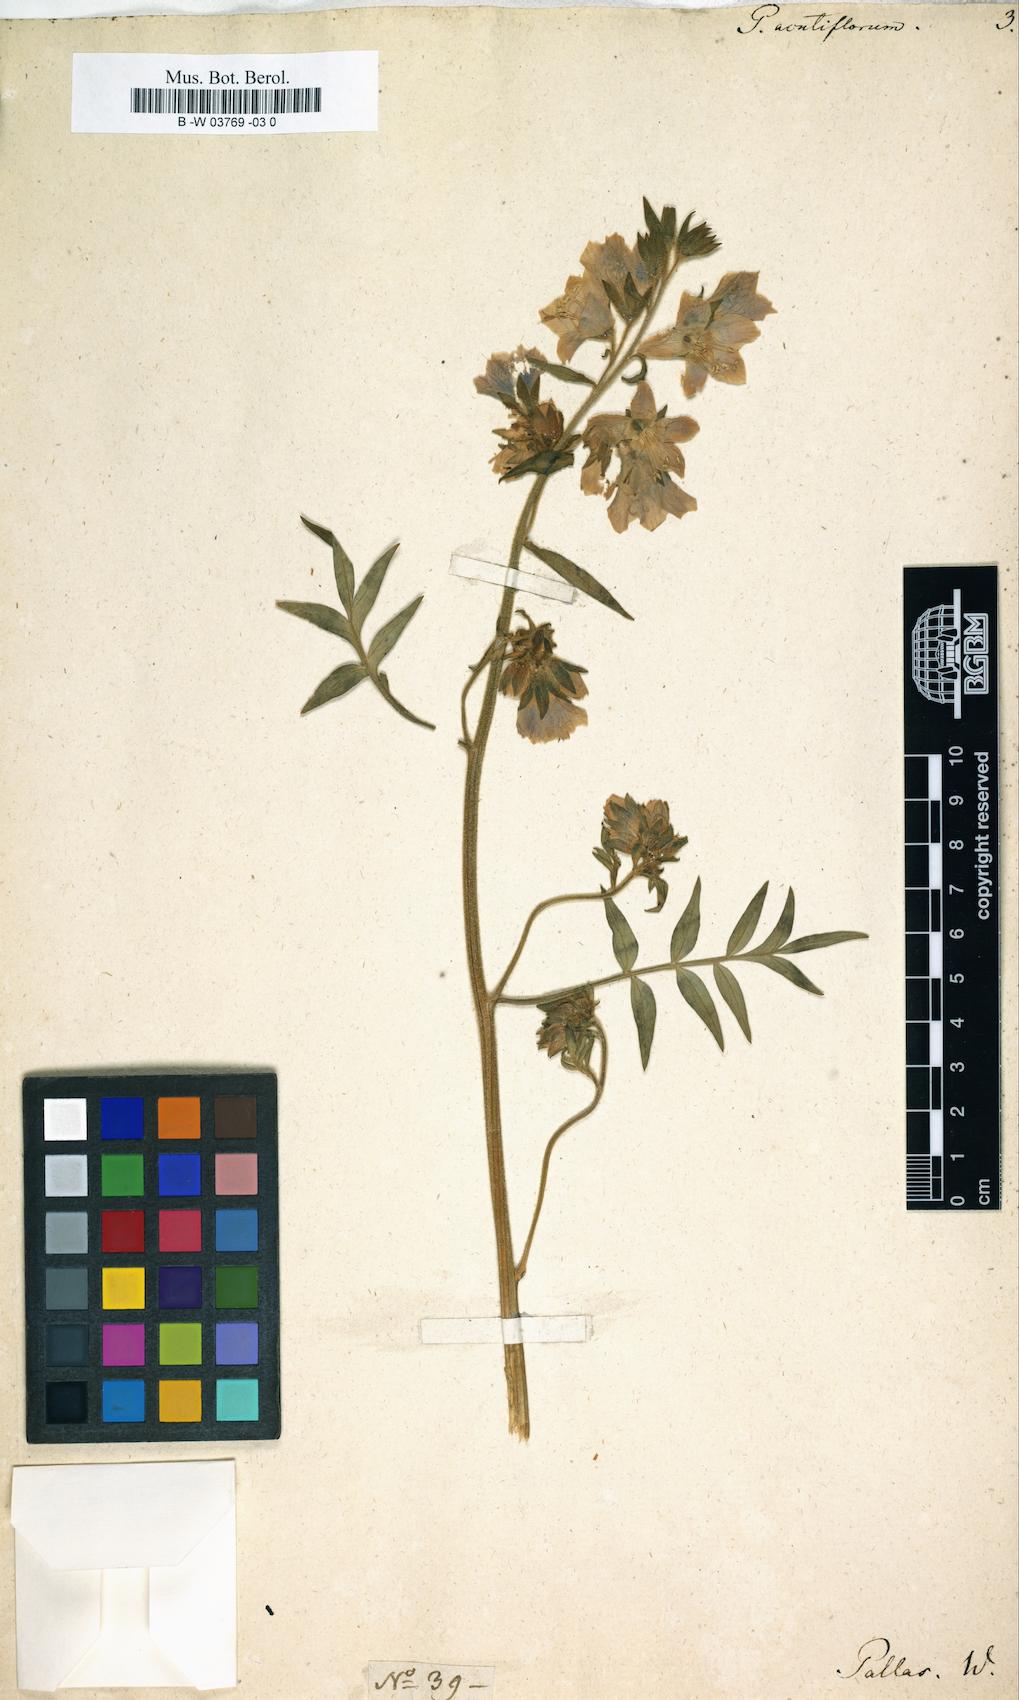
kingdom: Plantae
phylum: Tracheophyta
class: Magnoliopsida
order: Ericales
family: Polemoniaceae
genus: Polemonium
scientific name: Polemonium acutiflorum
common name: Tall jacob's-ladder
